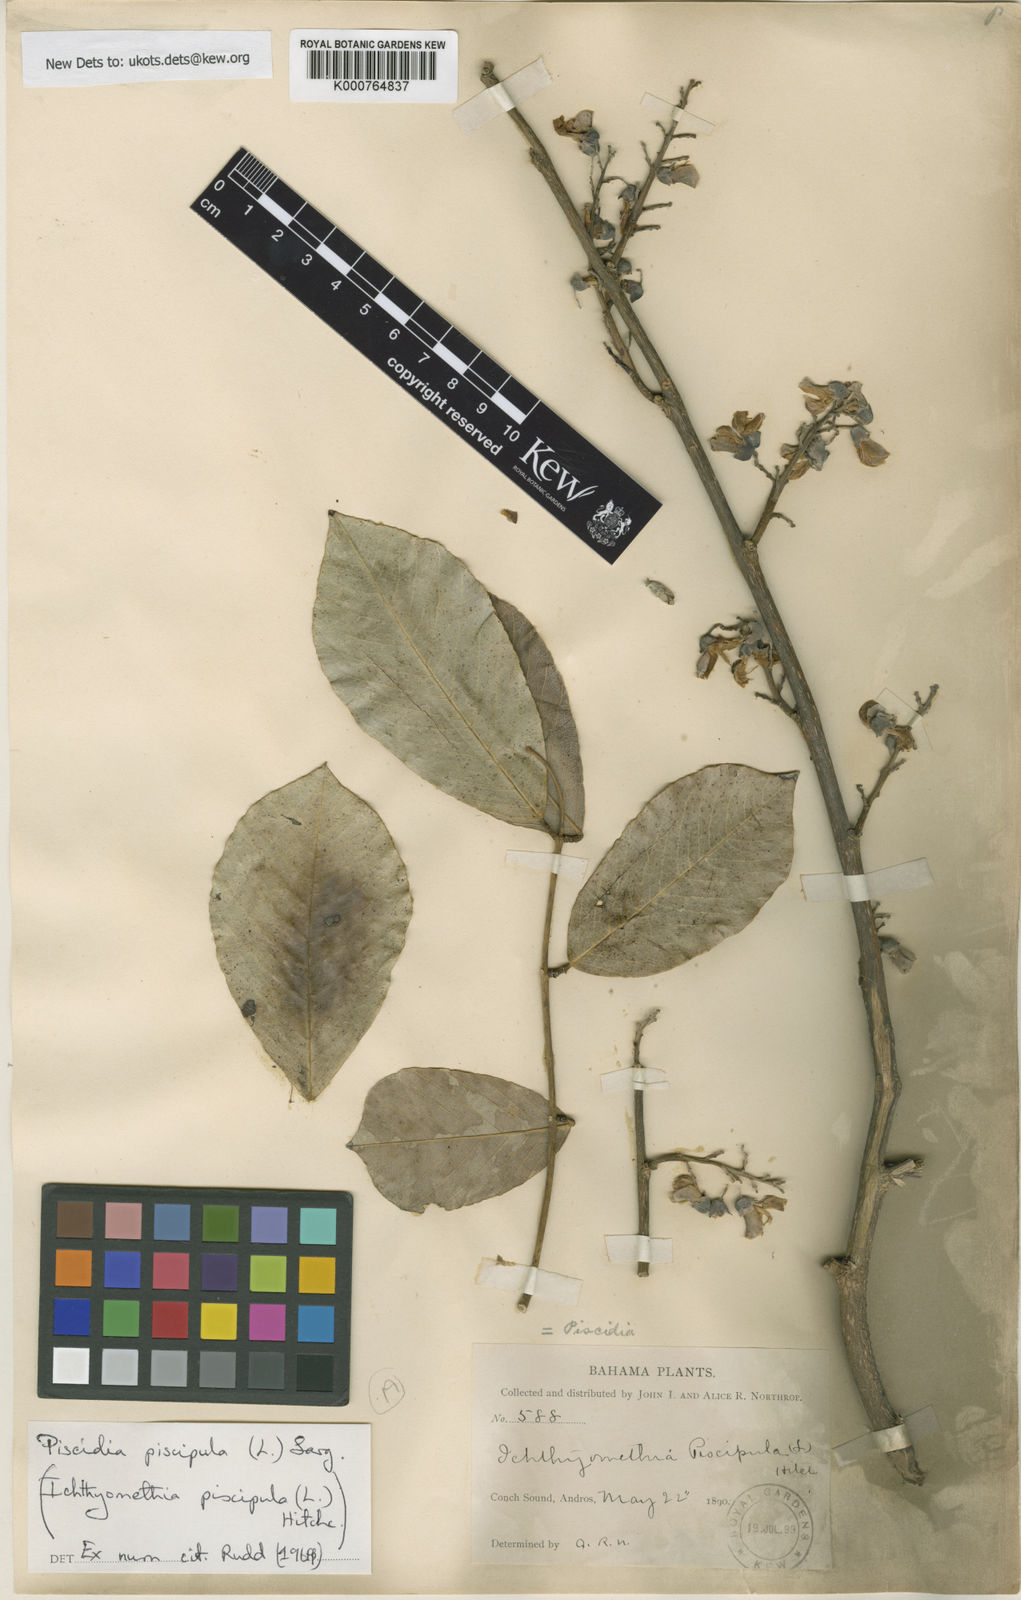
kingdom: Plantae
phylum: Tracheophyta
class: Magnoliopsida
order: Fabales
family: Fabaceae
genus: Piscidia
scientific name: Piscidia piscipula
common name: Florida fishpoison tree
